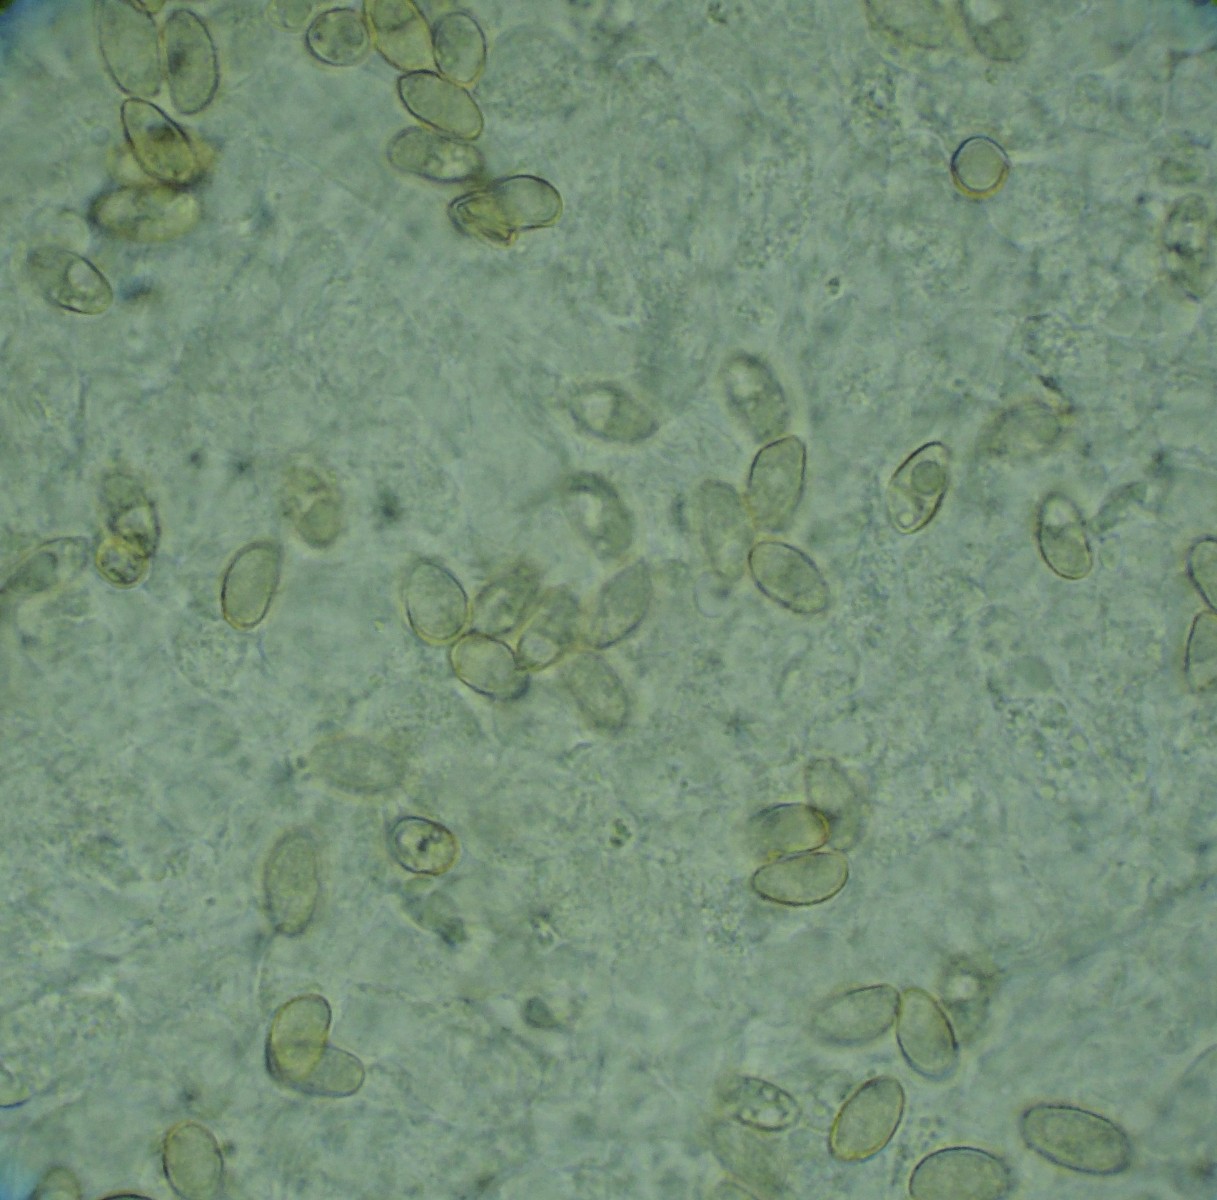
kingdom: Fungi
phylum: Basidiomycota
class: Agaricomycetes
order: Agaricales
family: Crepidotaceae
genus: Crepidotus
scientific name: Crepidotus luteolus
